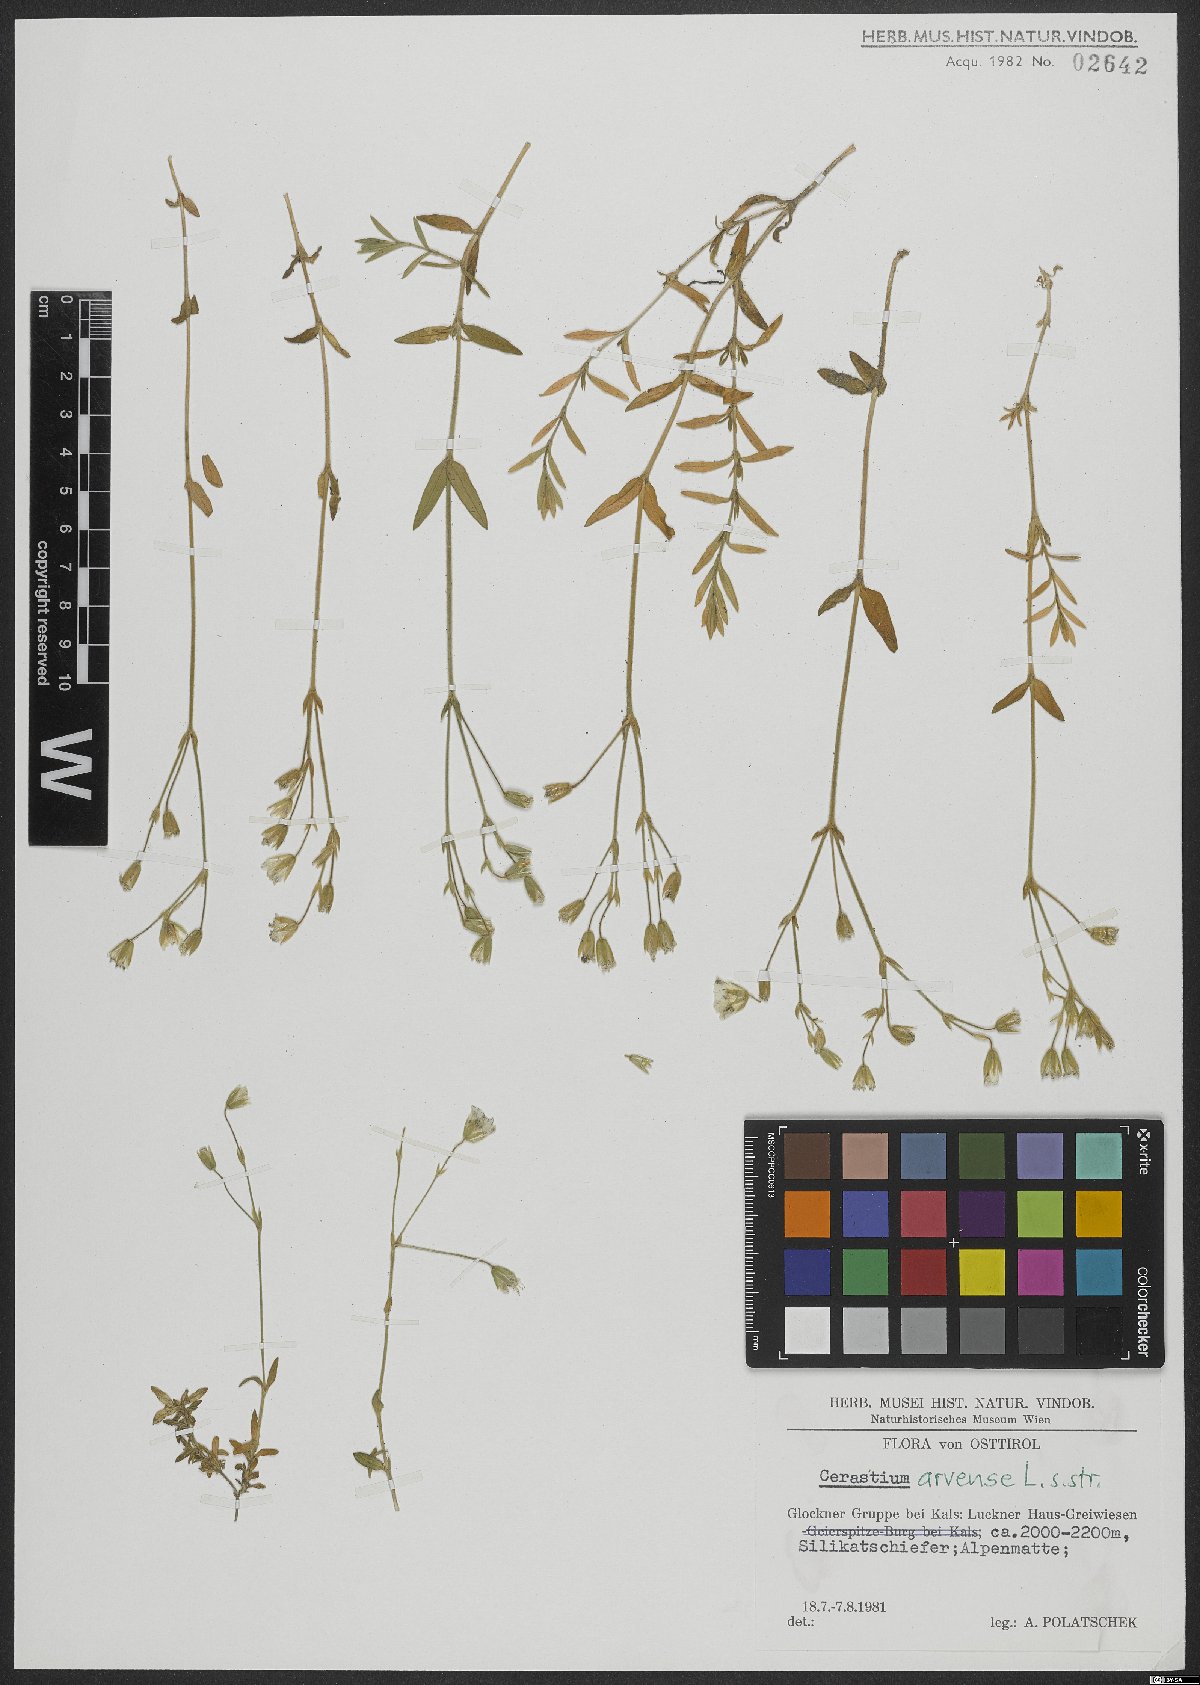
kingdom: Plantae
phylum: Tracheophyta
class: Magnoliopsida
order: Caryophyllales
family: Caryophyllaceae
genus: Cerastium
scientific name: Cerastium arvense
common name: Field mouse-ear
